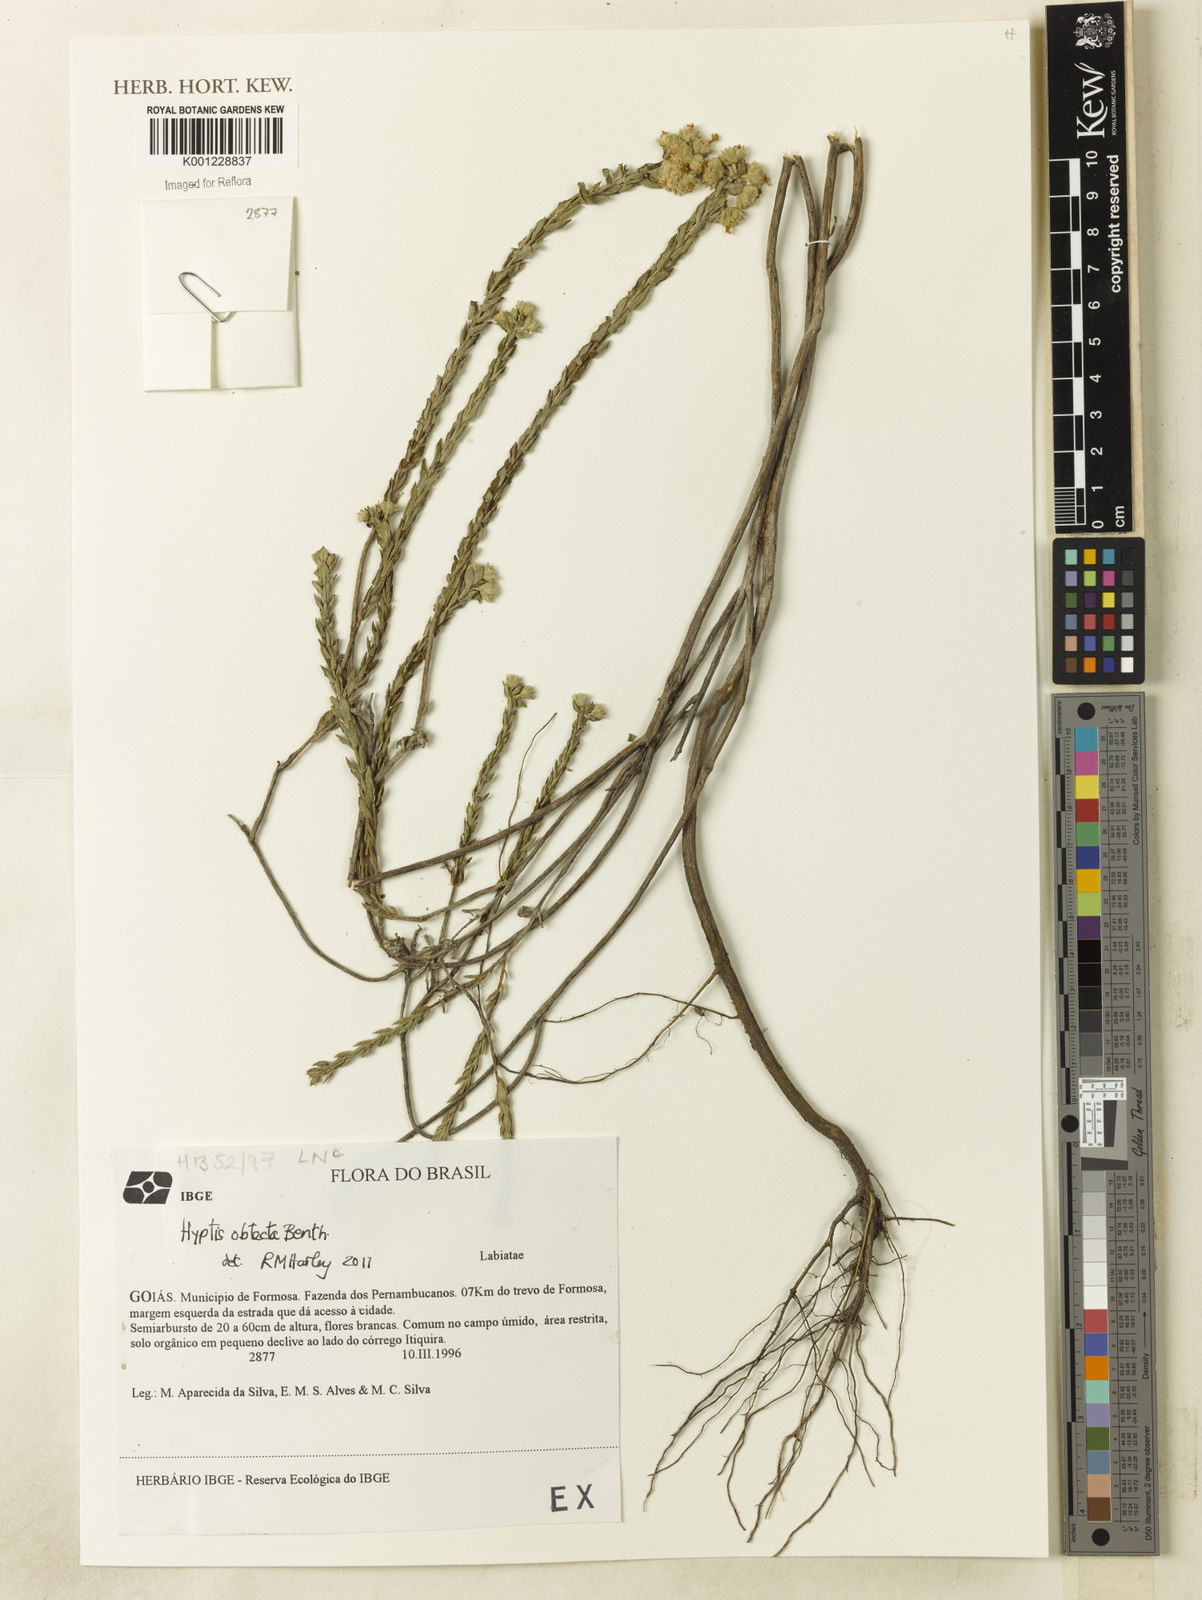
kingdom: Plantae
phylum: Tracheophyta
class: Magnoliopsida
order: Lamiales
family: Lamiaceae
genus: Hyptis
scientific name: Hyptis obtecta
